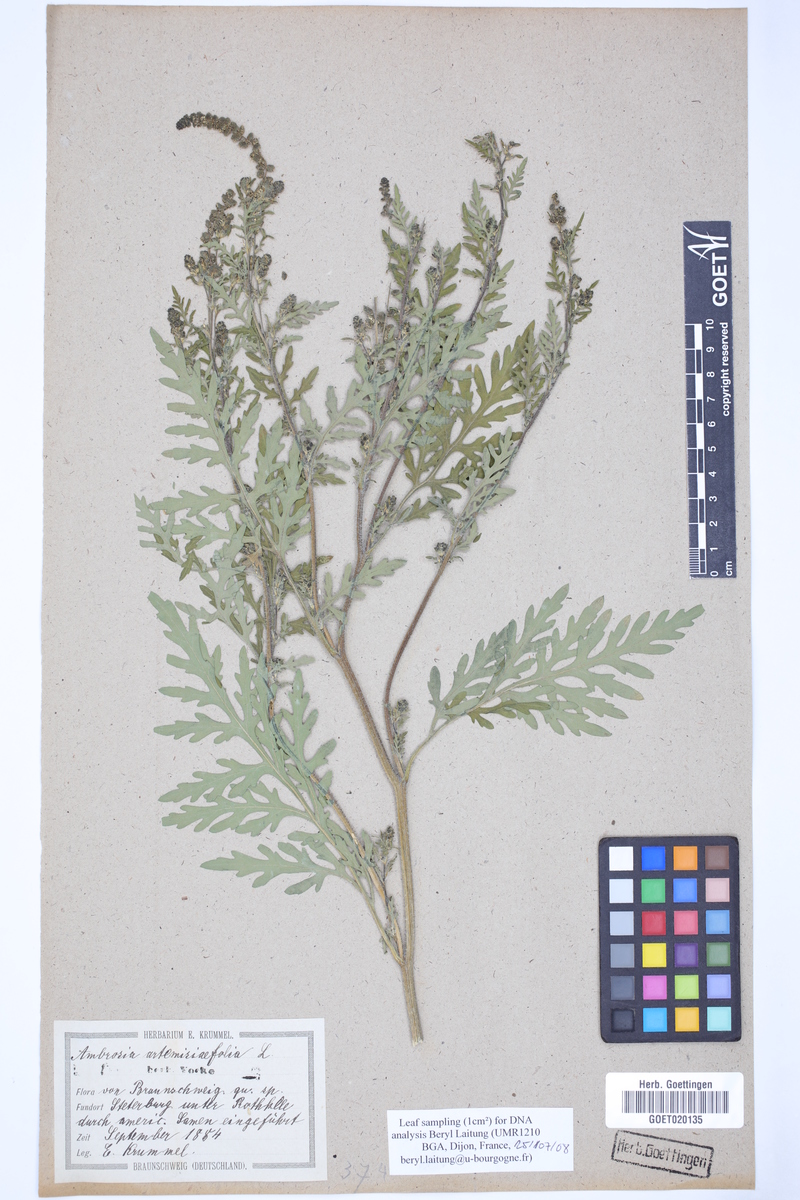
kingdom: Plantae
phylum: Tracheophyta
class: Magnoliopsida
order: Asterales
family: Asteraceae
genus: Ambrosia
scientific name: Ambrosia artemisiifolia
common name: Annual ragweed
